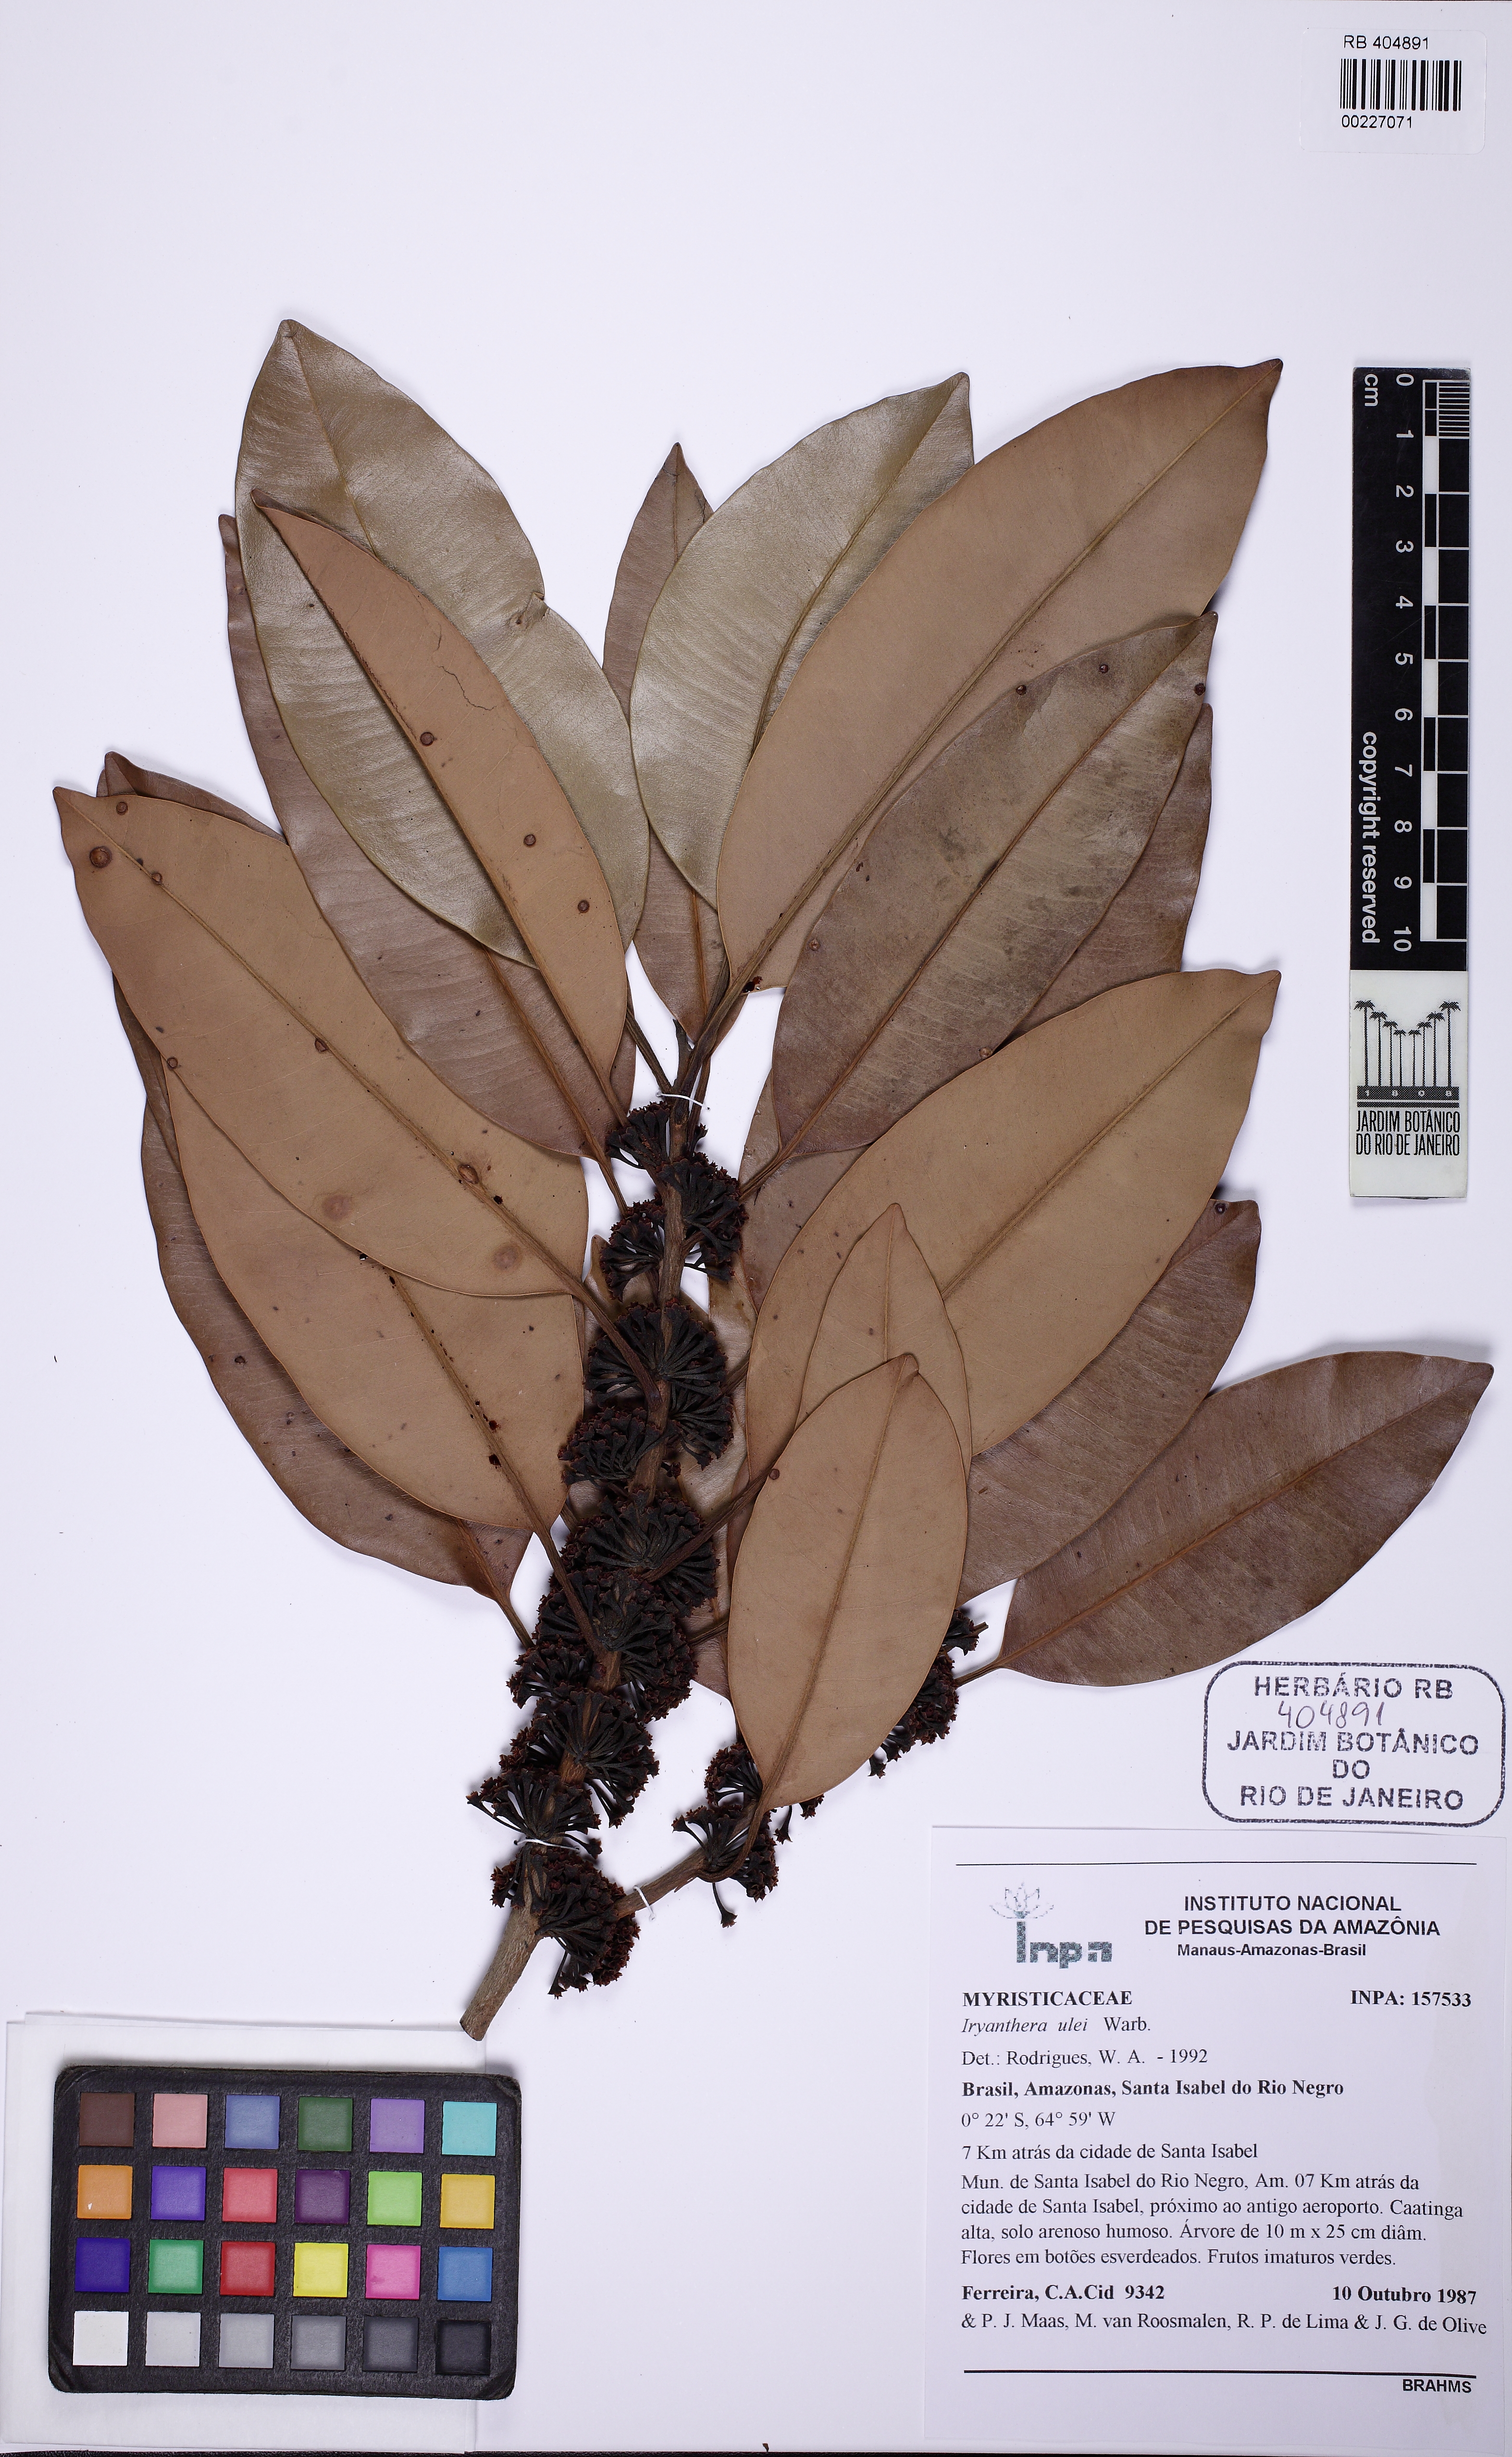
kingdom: Plantae
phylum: Tracheophyta
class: Magnoliopsida
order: Magnoliales
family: Myristicaceae
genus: Iryanthera
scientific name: Iryanthera ulei
